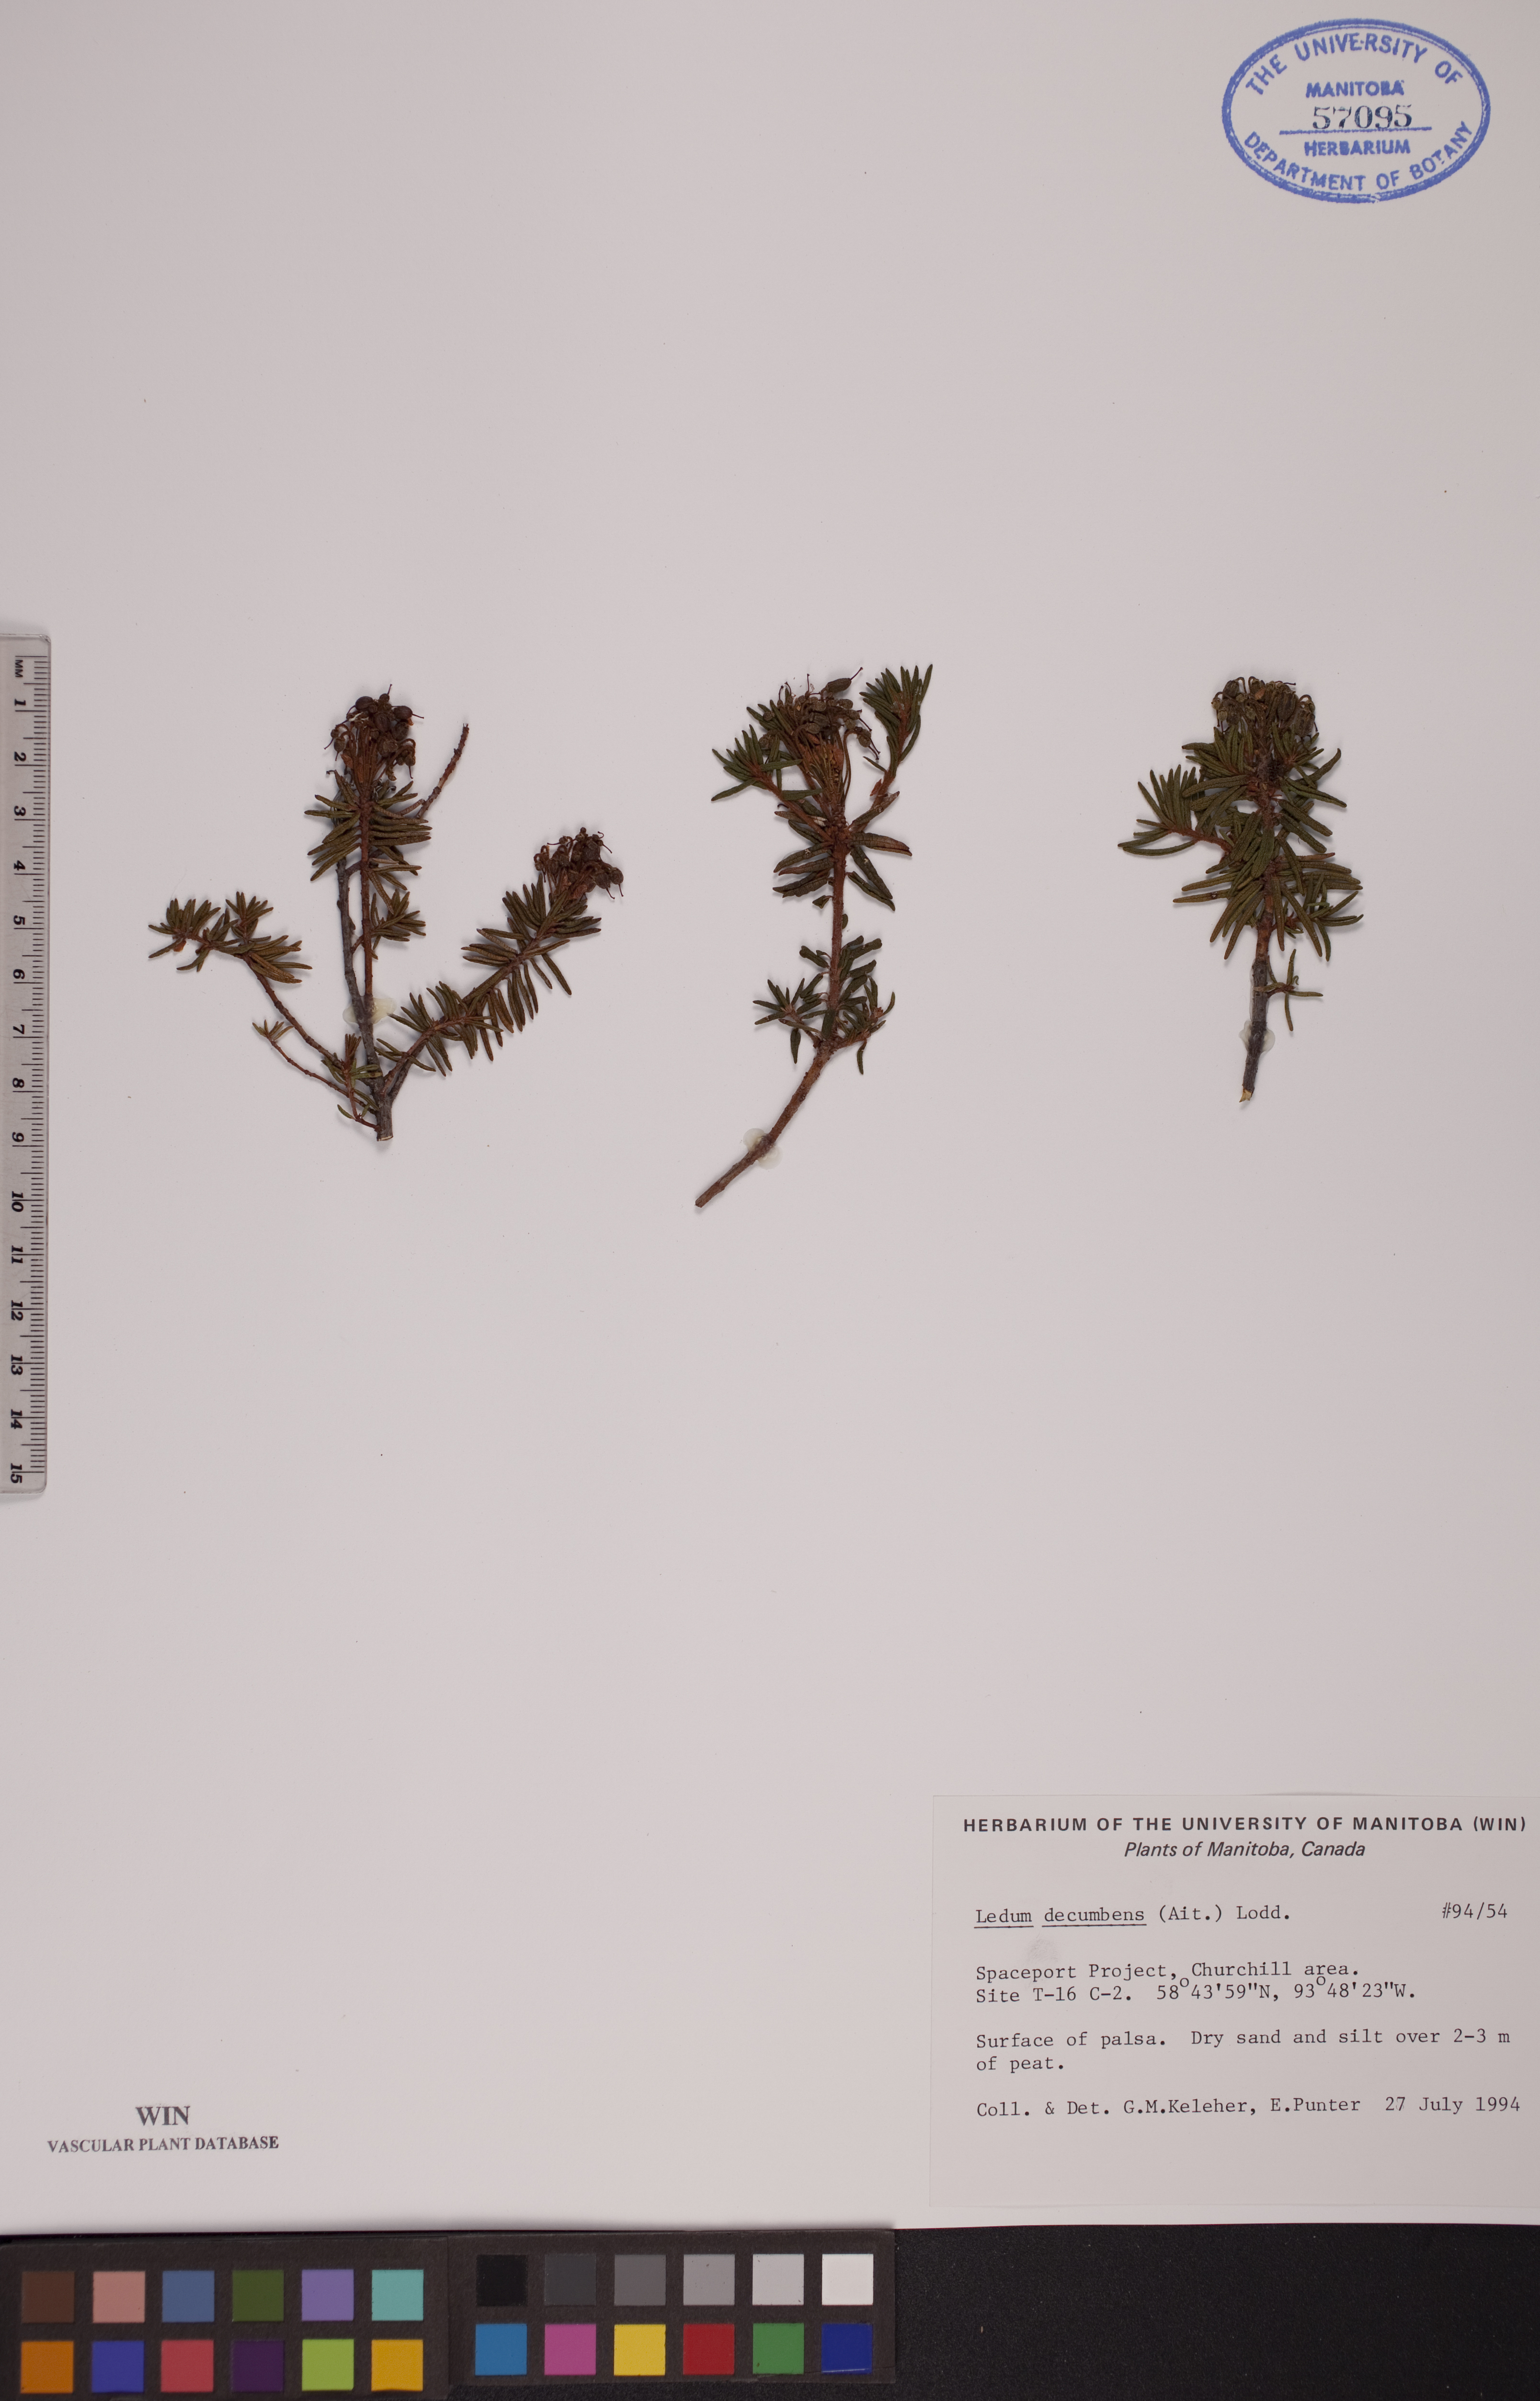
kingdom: Plantae
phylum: Tracheophyta
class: Magnoliopsida
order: Ericales
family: Ericaceae
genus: Rhododendron
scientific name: Rhododendron tomentosum
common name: Marsh labrador tea
